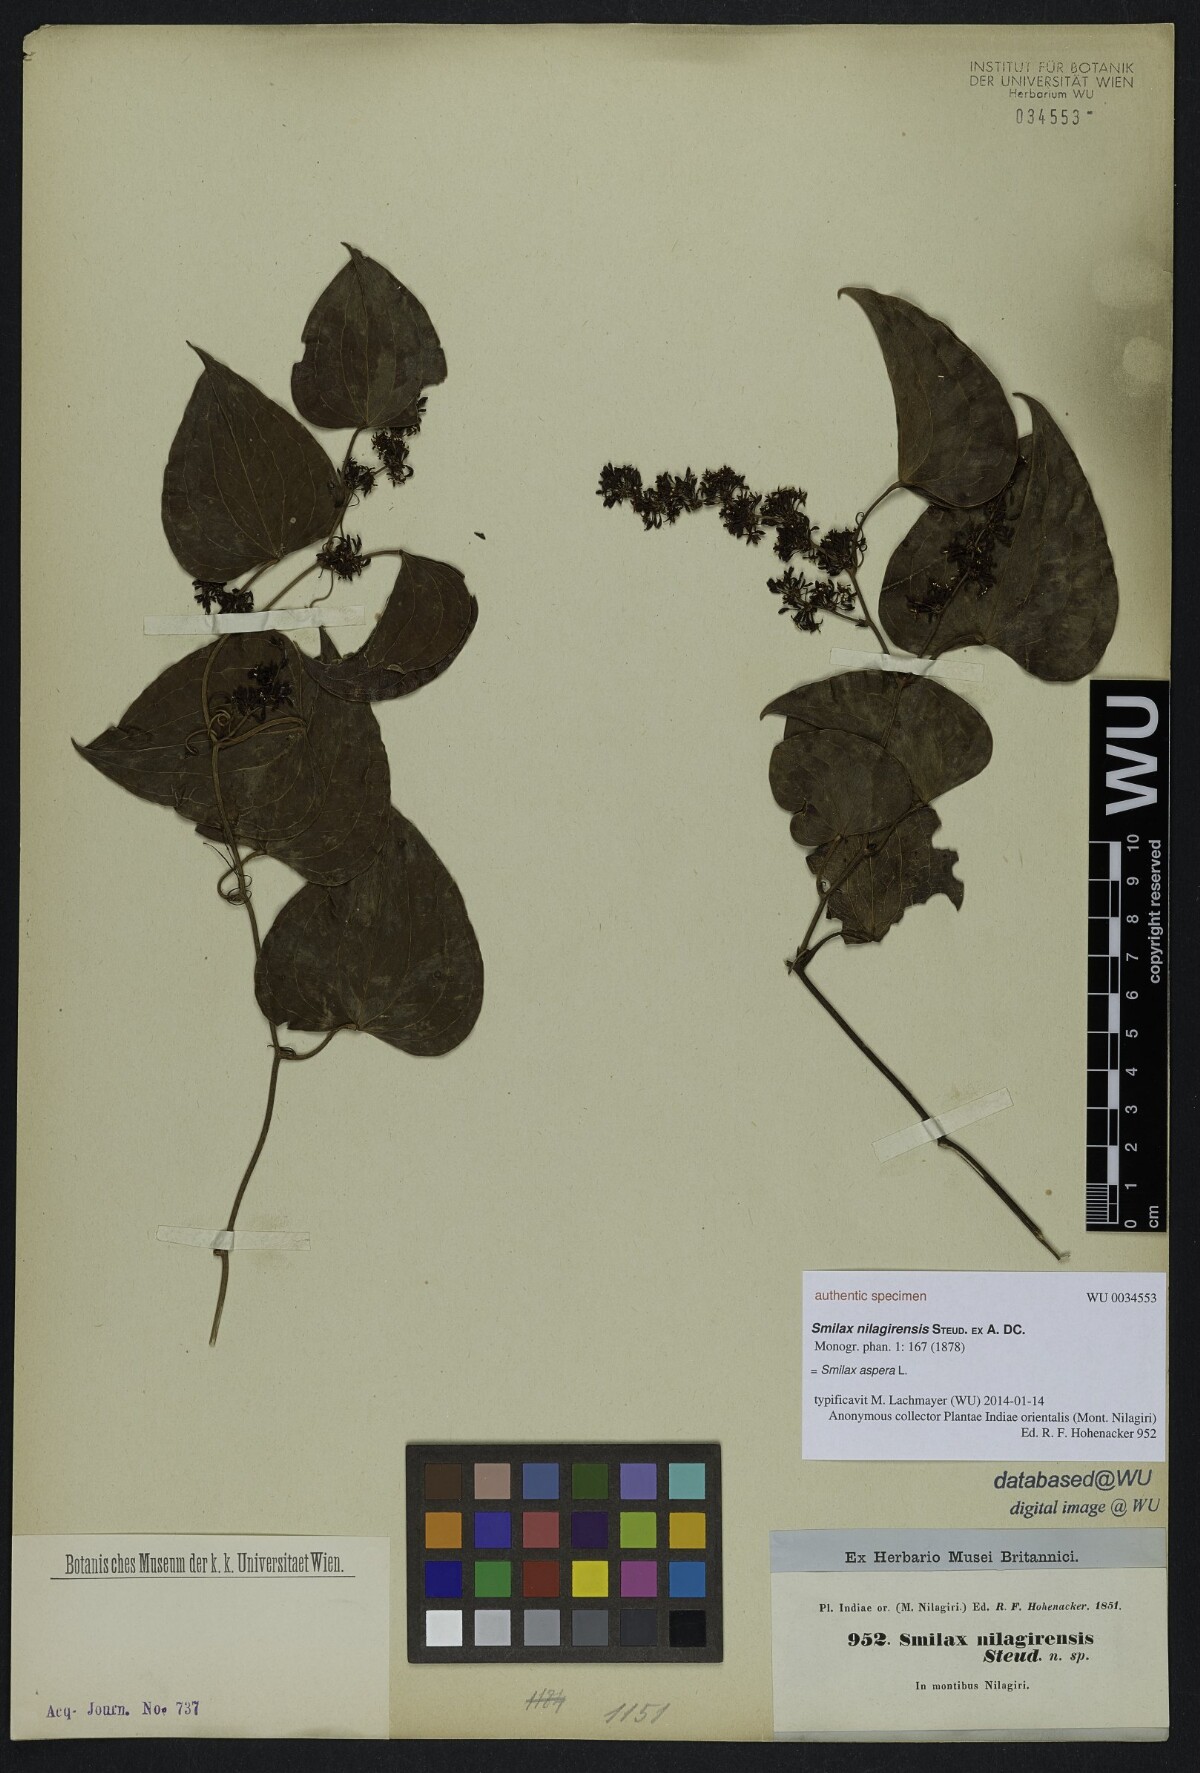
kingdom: Plantae
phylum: Tracheophyta
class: Liliopsida
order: Liliales
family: Smilacaceae
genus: Smilax
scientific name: Smilax aspera
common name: Common smilax
